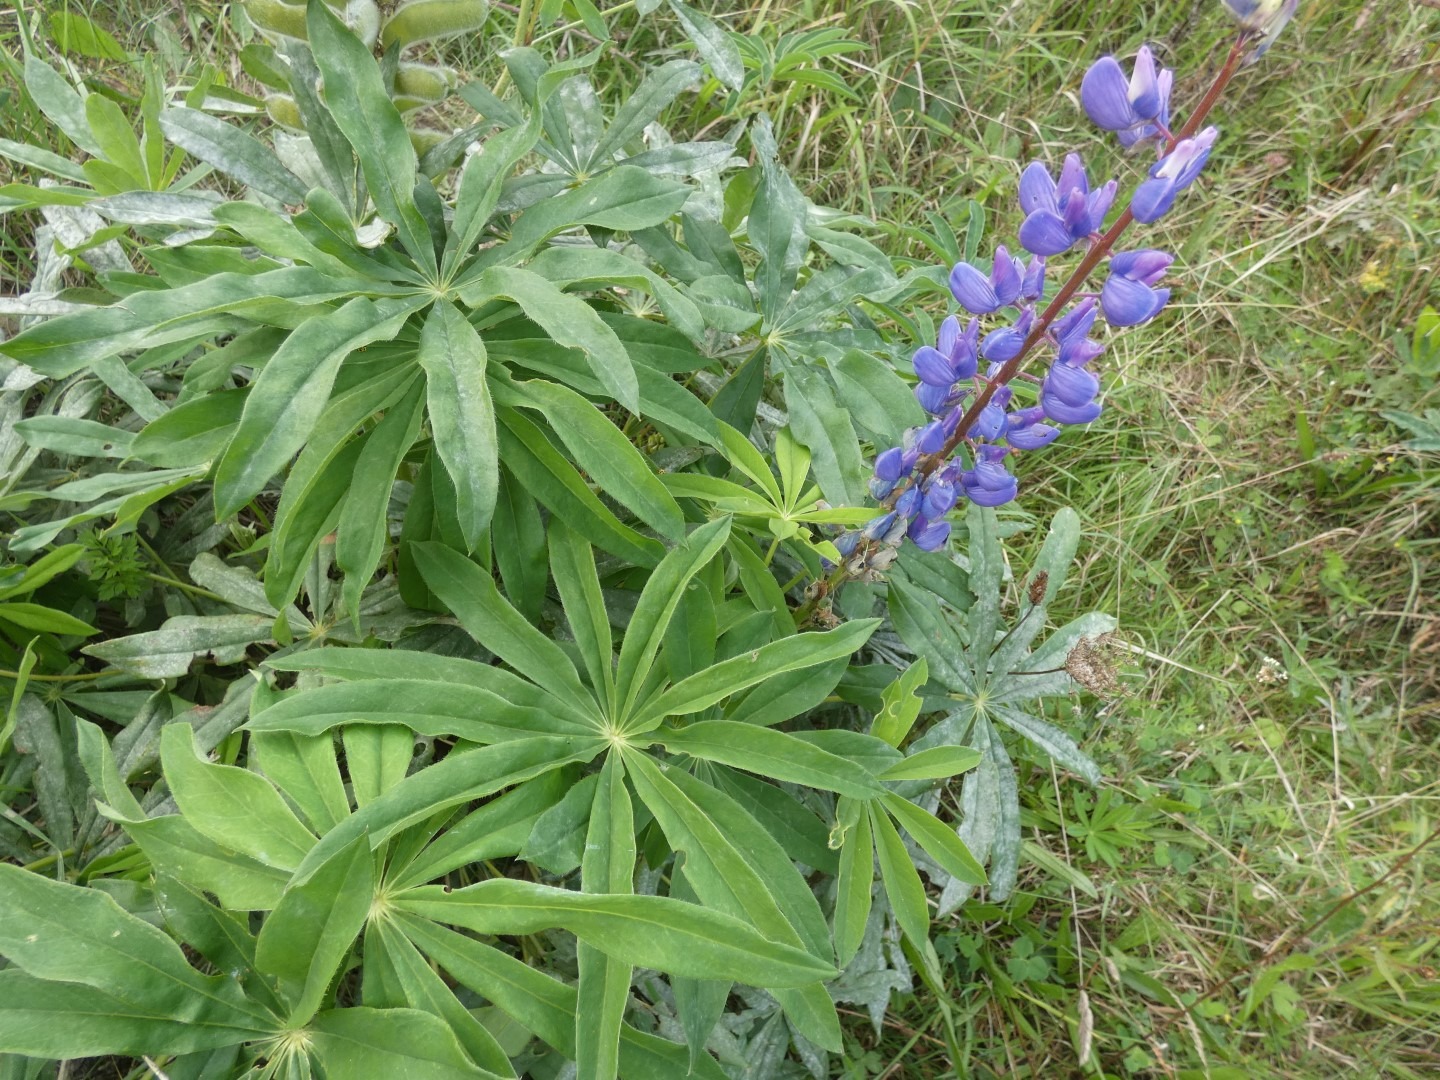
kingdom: Plantae
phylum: Tracheophyta
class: Magnoliopsida
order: Fabales
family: Fabaceae
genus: Lupinus
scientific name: Lupinus polyphyllus
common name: Mangebladet lupin
